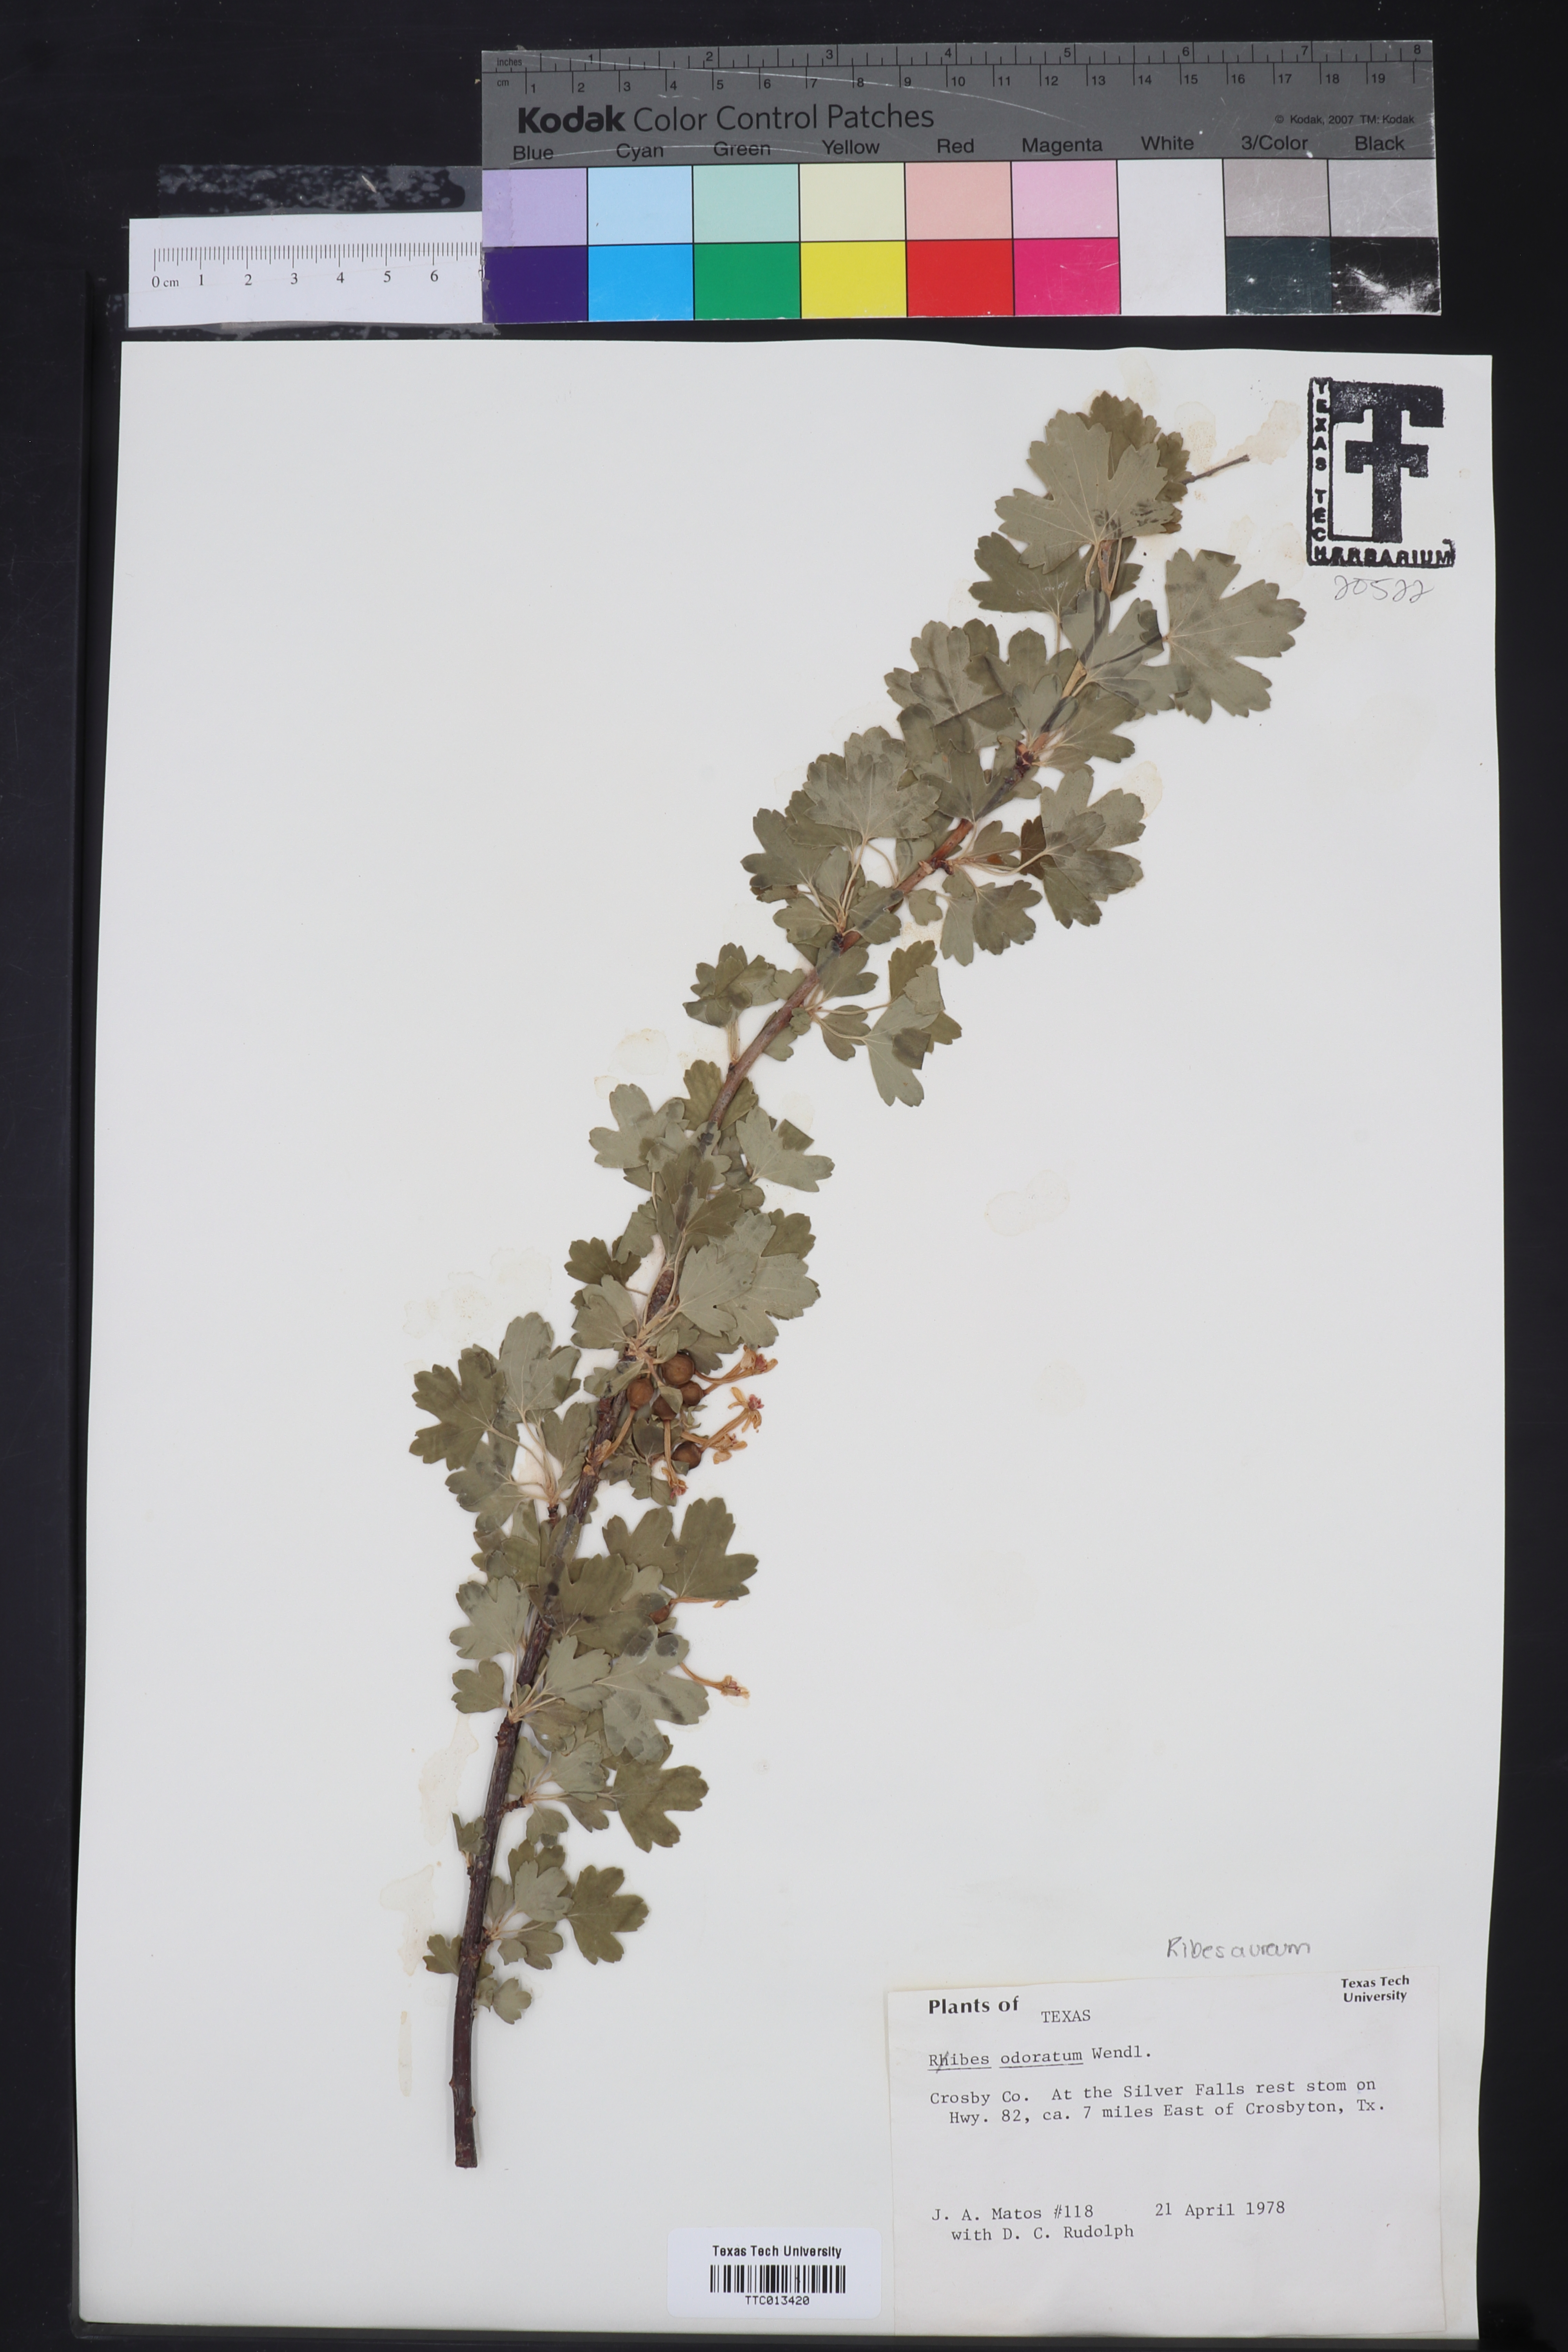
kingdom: Plantae
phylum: Tracheophyta
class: Magnoliopsida
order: Saxifragales
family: Grossulariaceae
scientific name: Grossulariaceae
